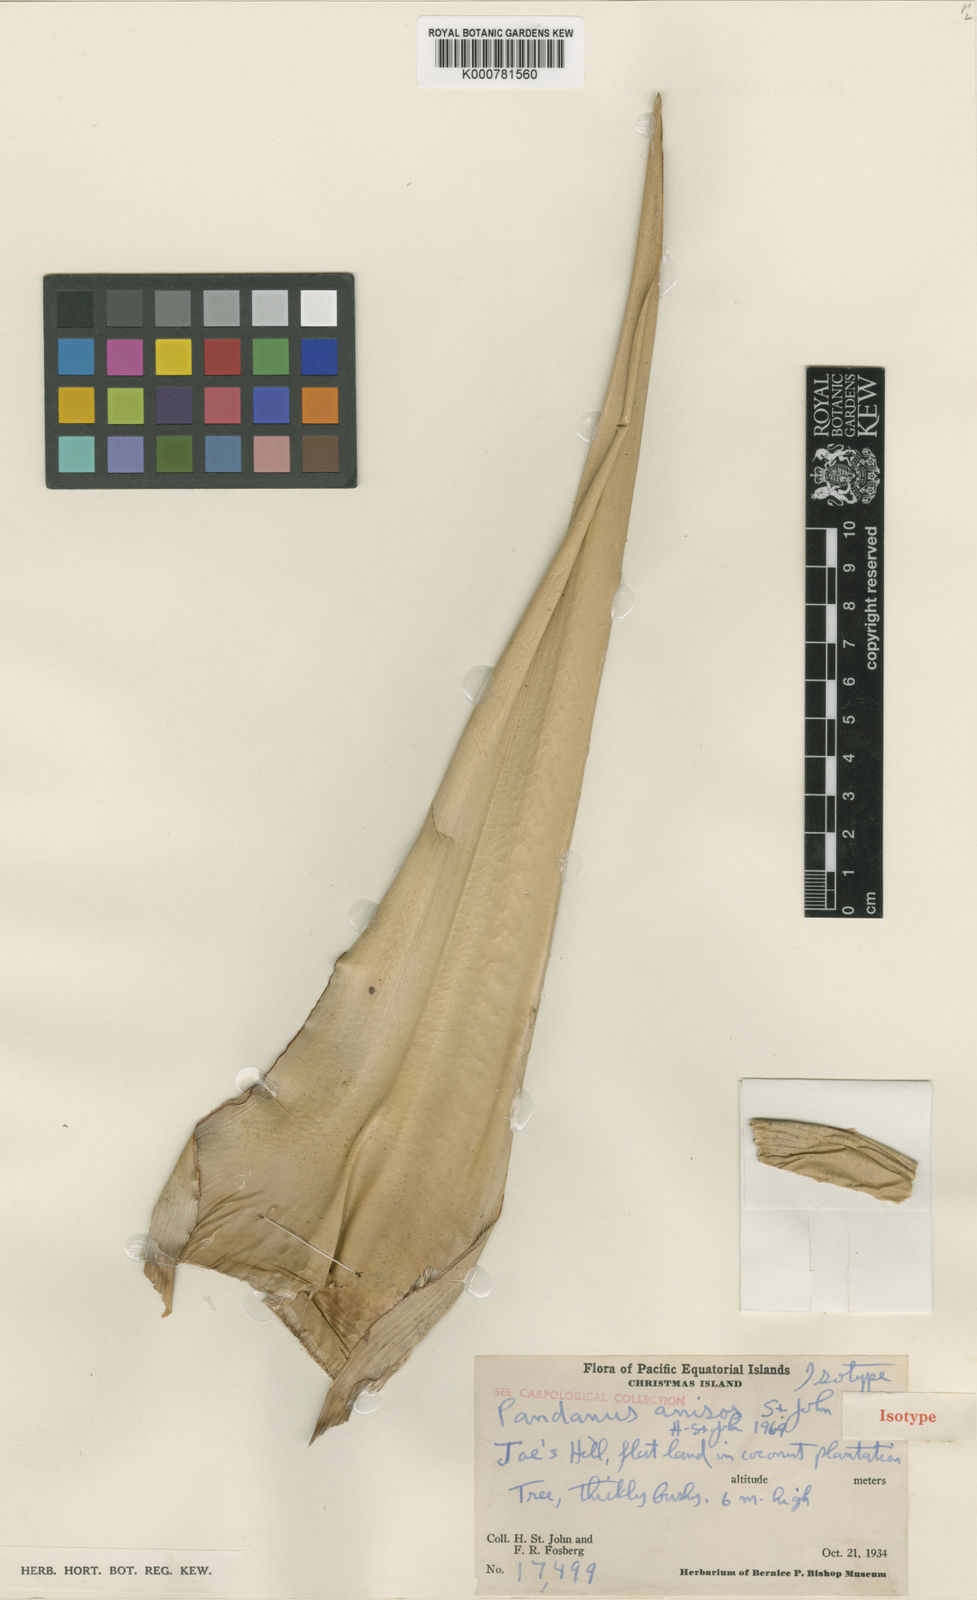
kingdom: Plantae
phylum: Tracheophyta
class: Liliopsida
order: Pandanales
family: Pandanaceae
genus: Pandanus
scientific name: Pandanus tectorius
